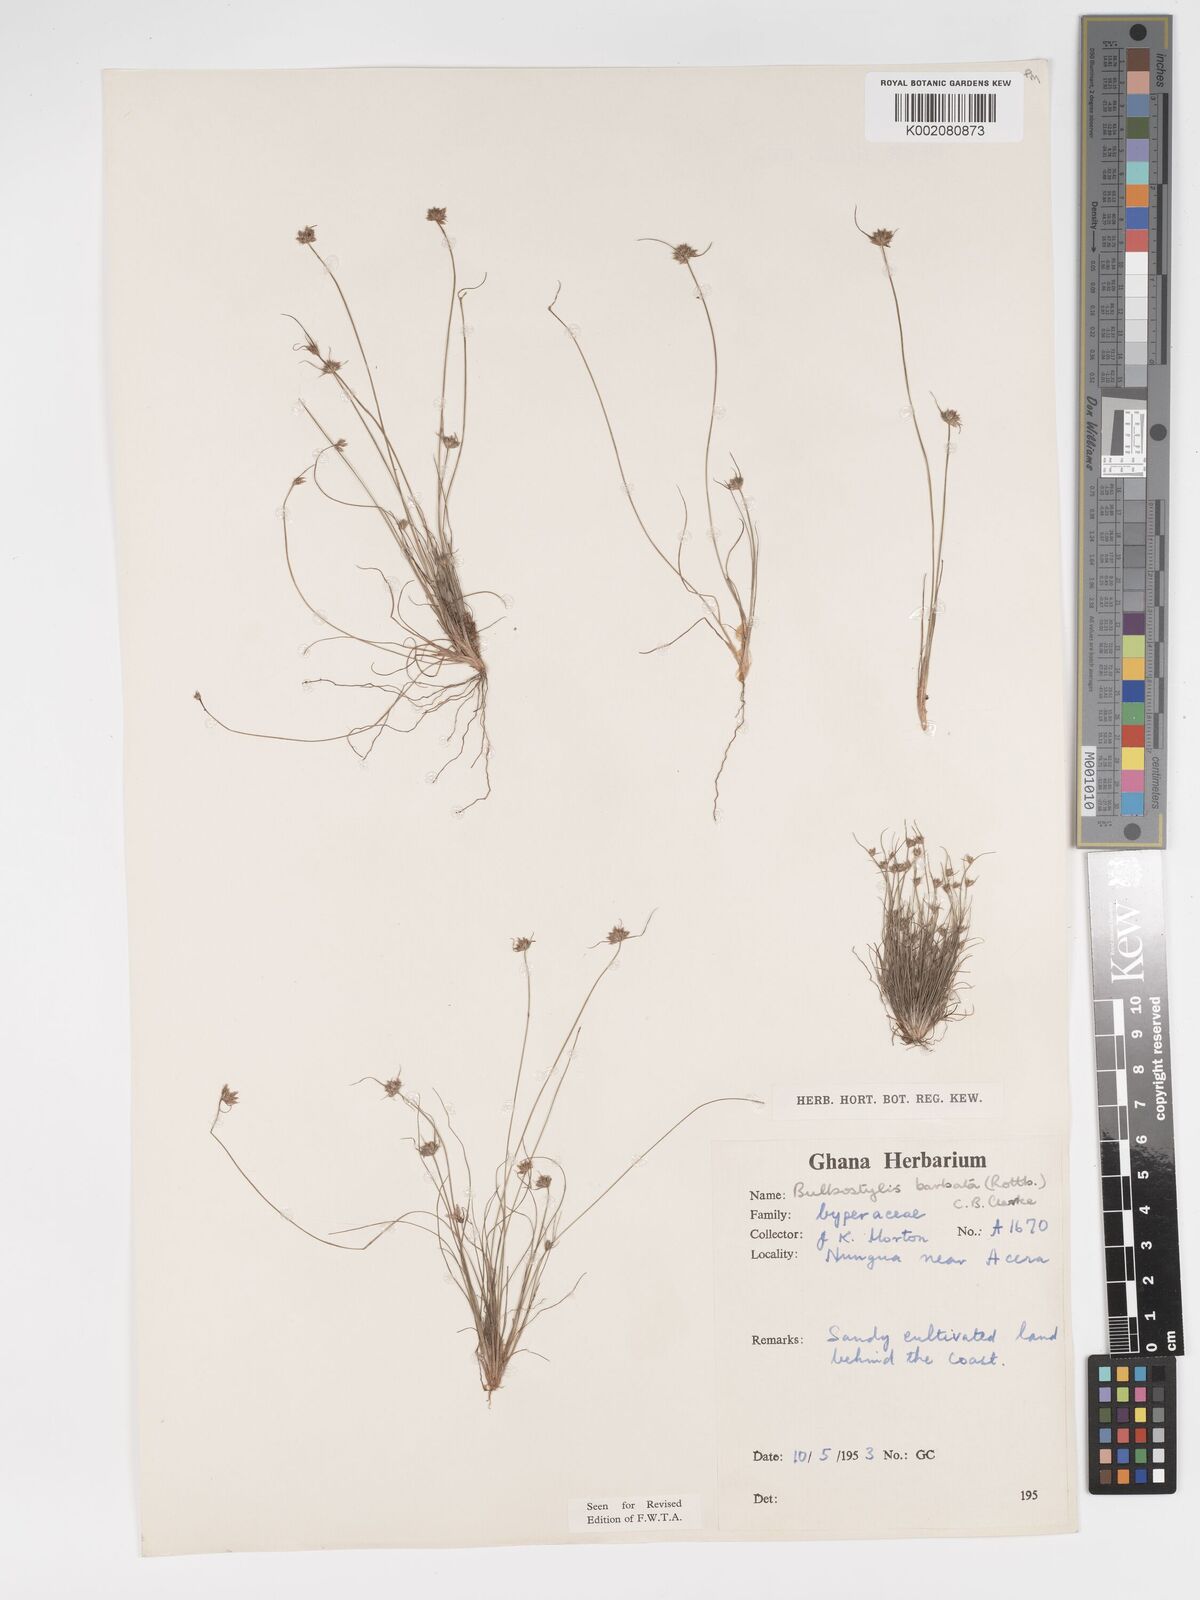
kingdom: Plantae
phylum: Tracheophyta
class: Liliopsida
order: Poales
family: Cyperaceae
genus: Bulbostylis
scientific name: Bulbostylis barbata
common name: Watergrass
